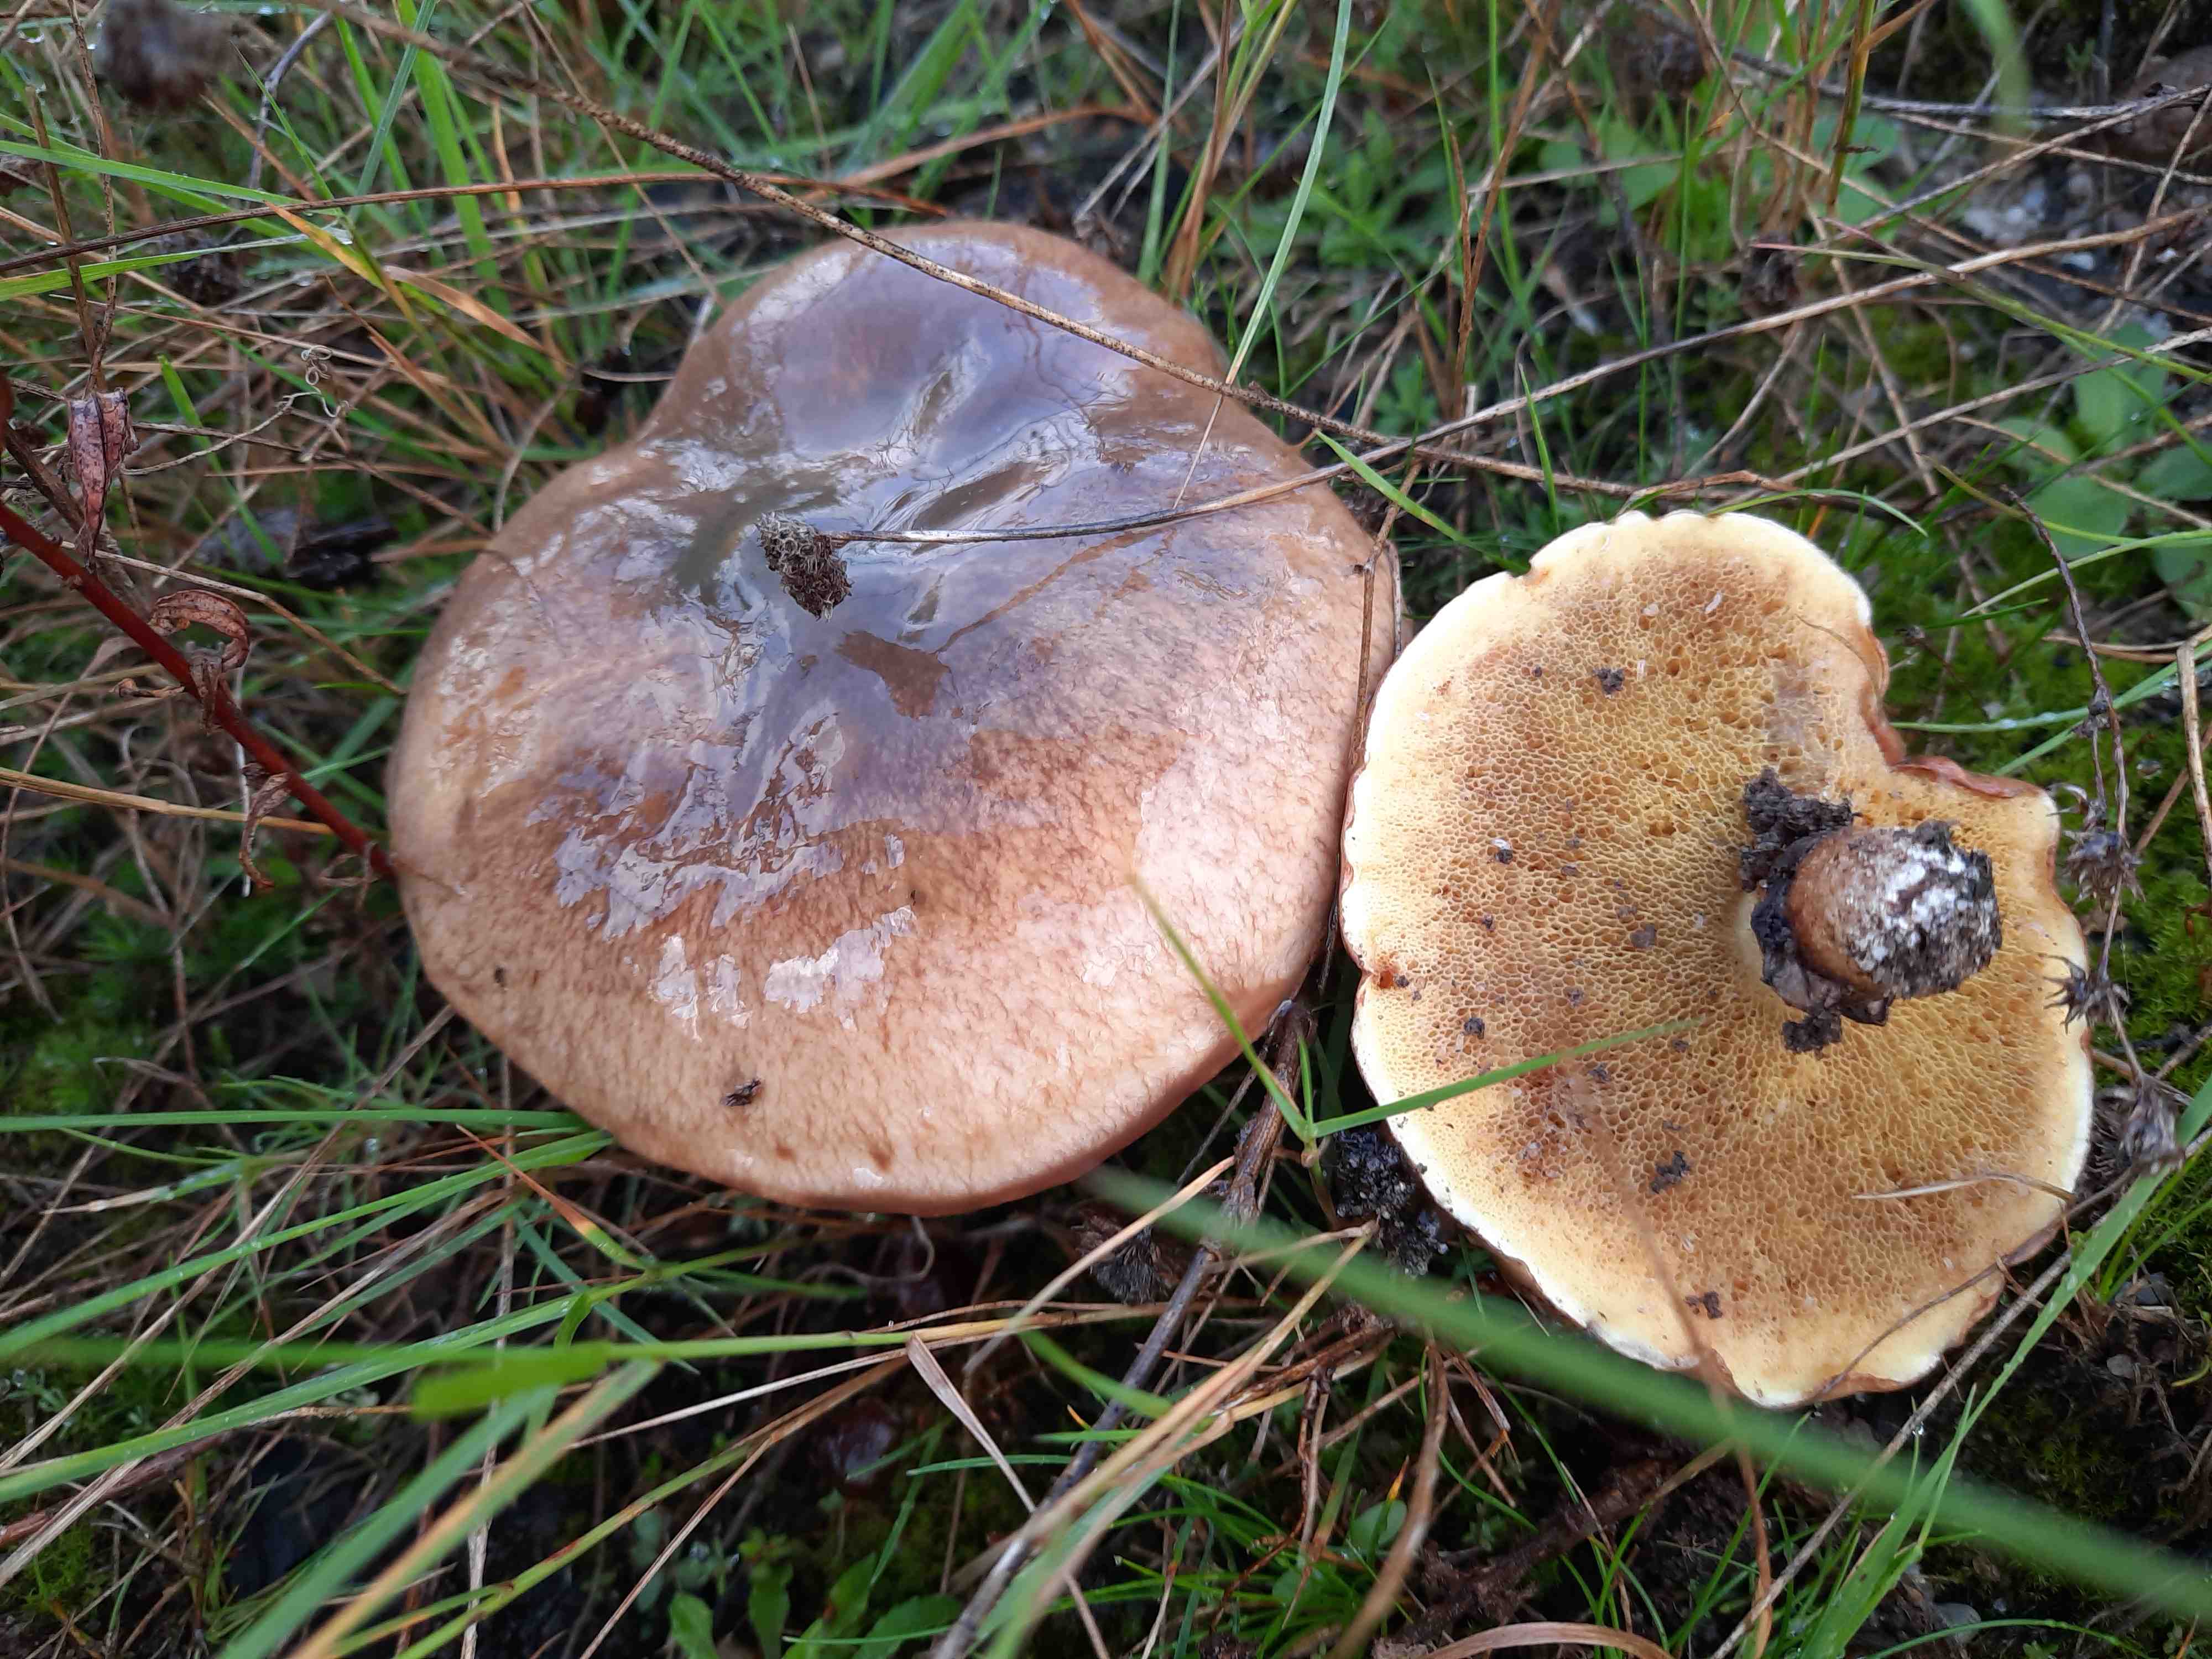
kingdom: Fungi
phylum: Basidiomycota
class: Agaricomycetes
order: Boletales
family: Suillaceae
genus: Suillus
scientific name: Suillus luteus
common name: brungul slimrørhat
